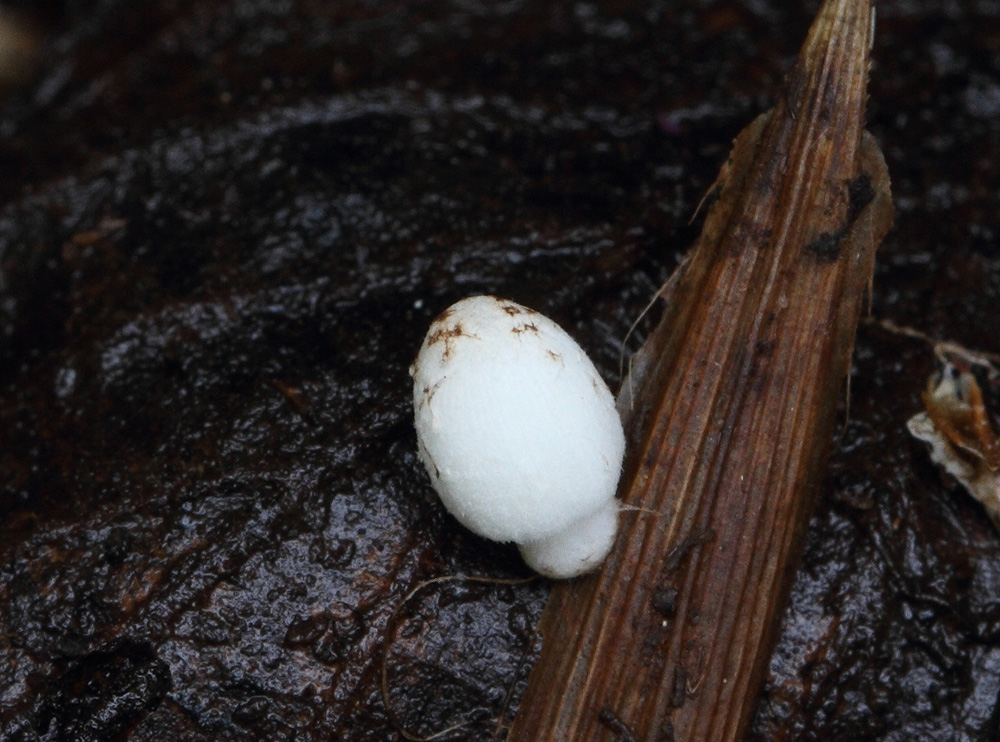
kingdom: Fungi
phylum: Basidiomycota
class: Agaricomycetes
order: Agaricales
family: Psathyrellaceae
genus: Coprinopsis
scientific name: Coprinopsis
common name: blækhat
